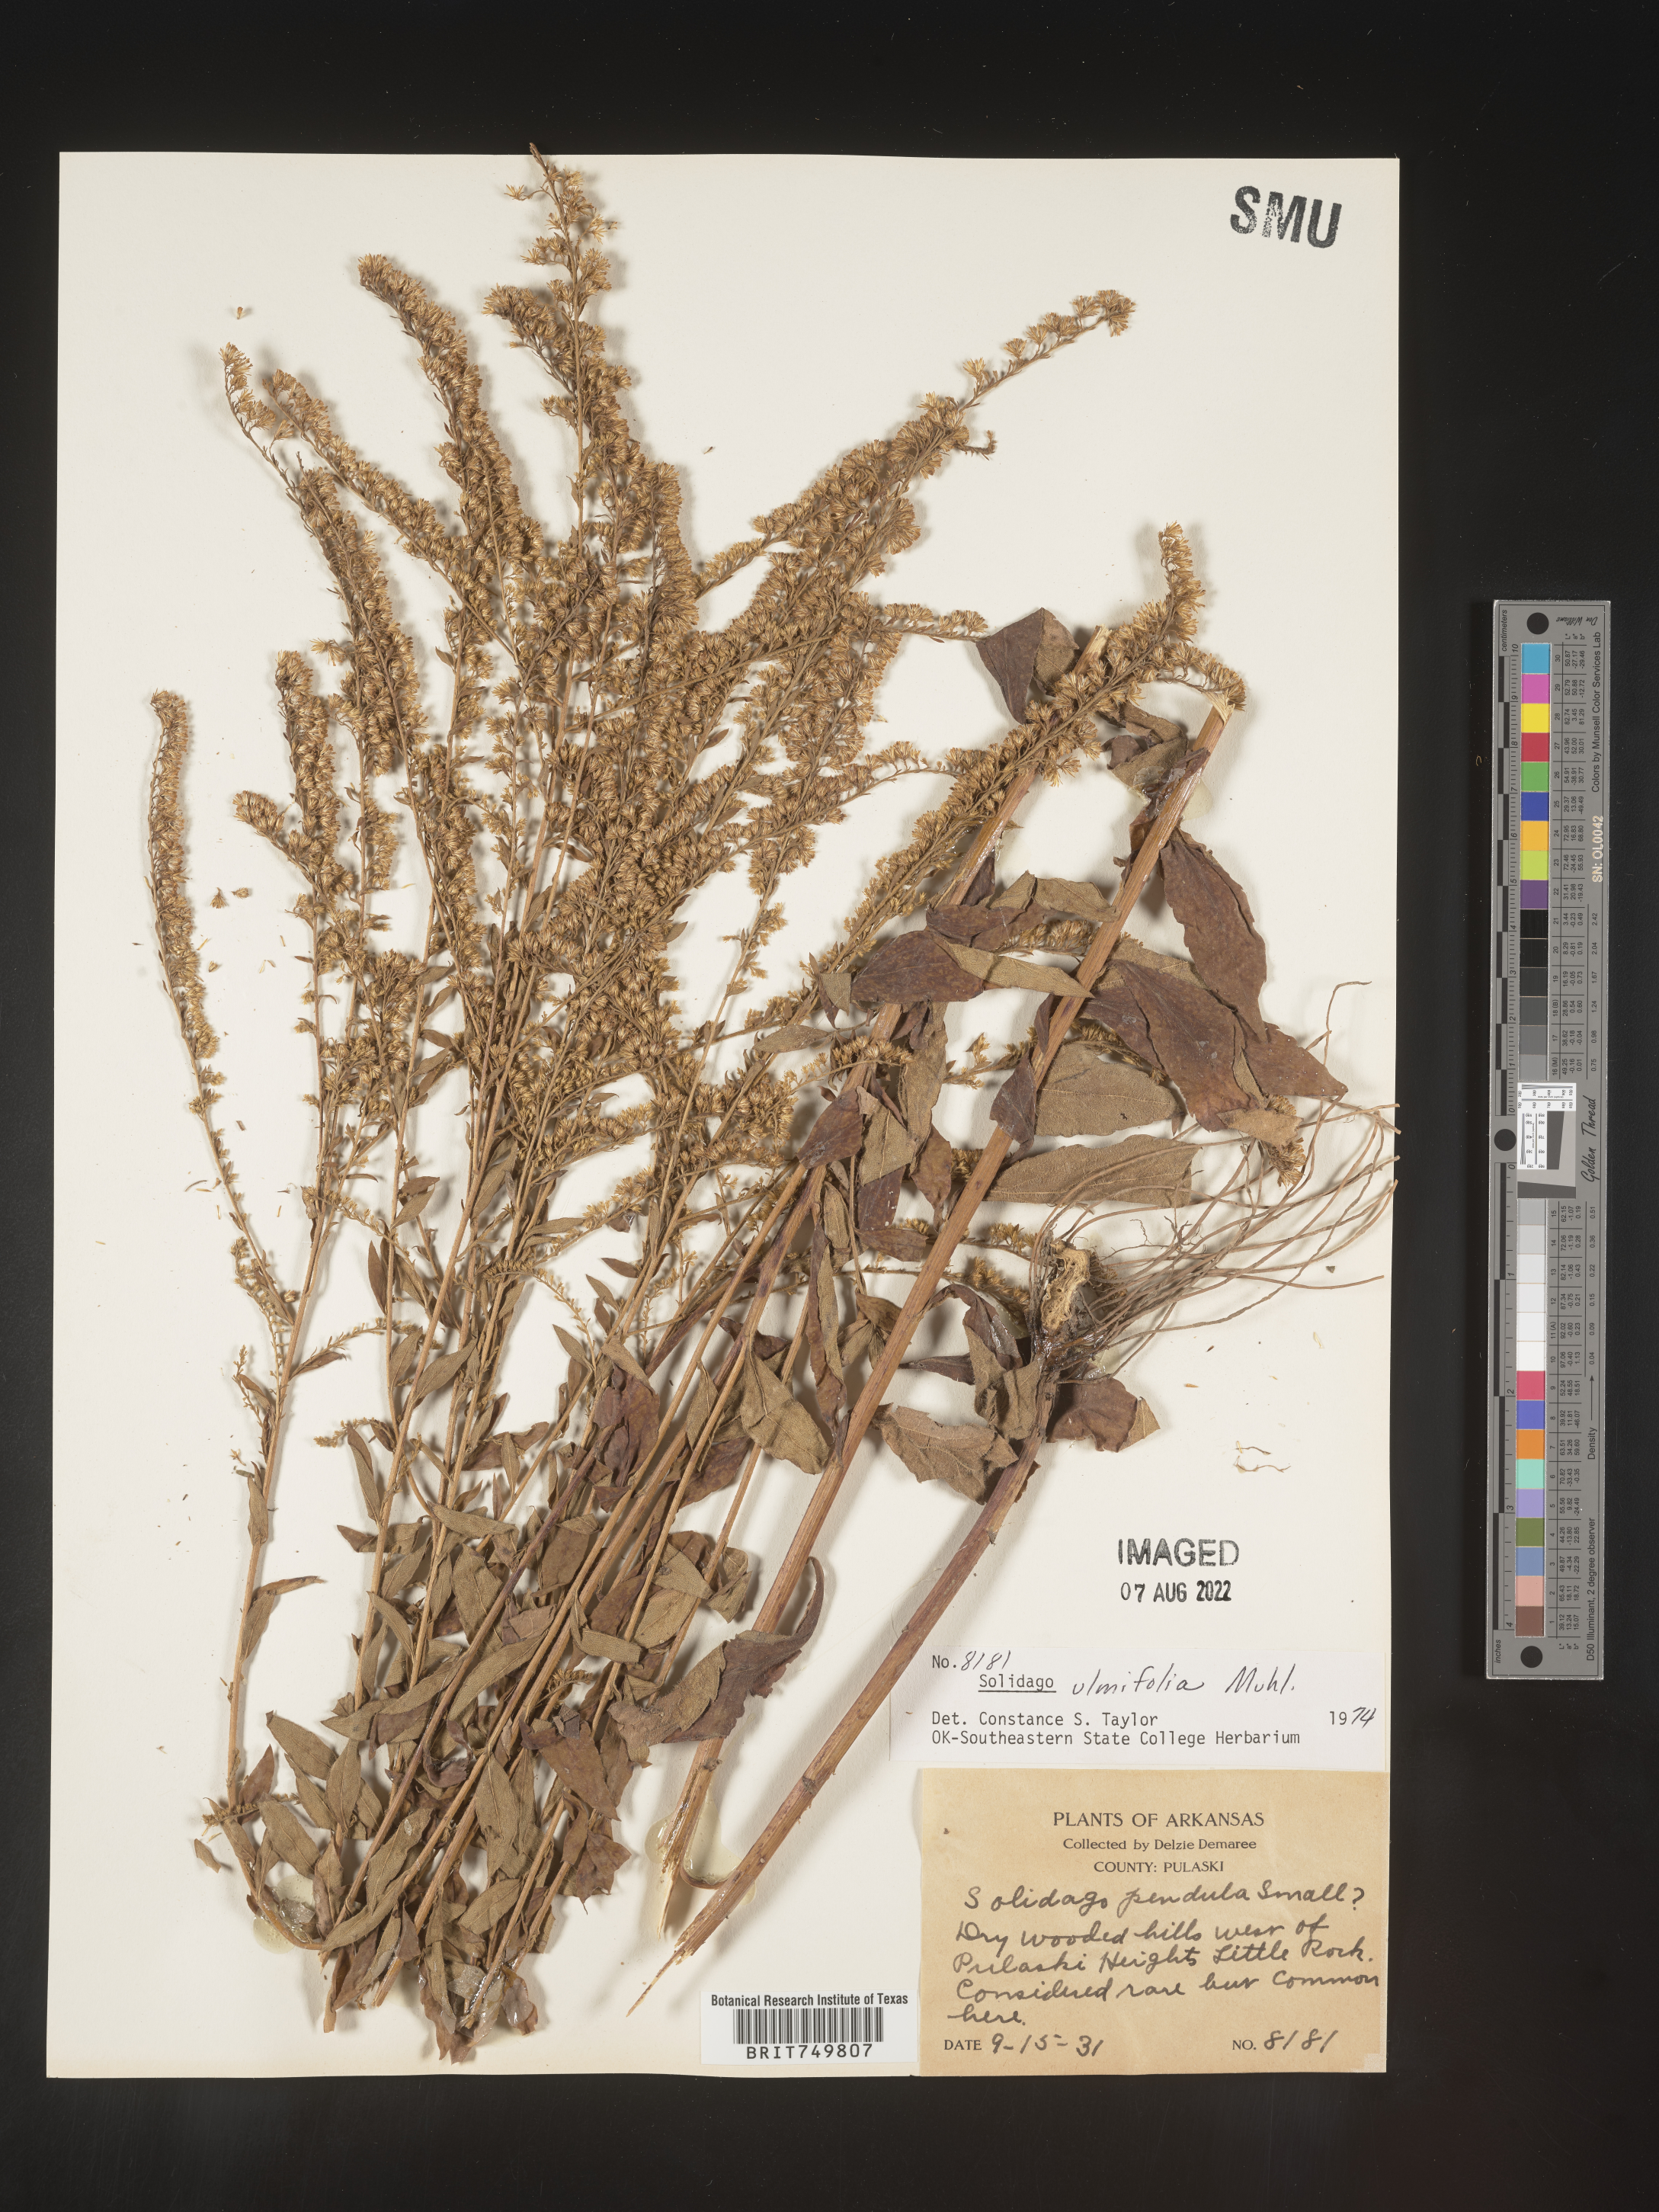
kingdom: Plantae
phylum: Tracheophyta
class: Magnoliopsida
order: Asterales
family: Asteraceae
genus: Solidago
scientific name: Solidago ulmifolia
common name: Elm-leaf goldenrod
